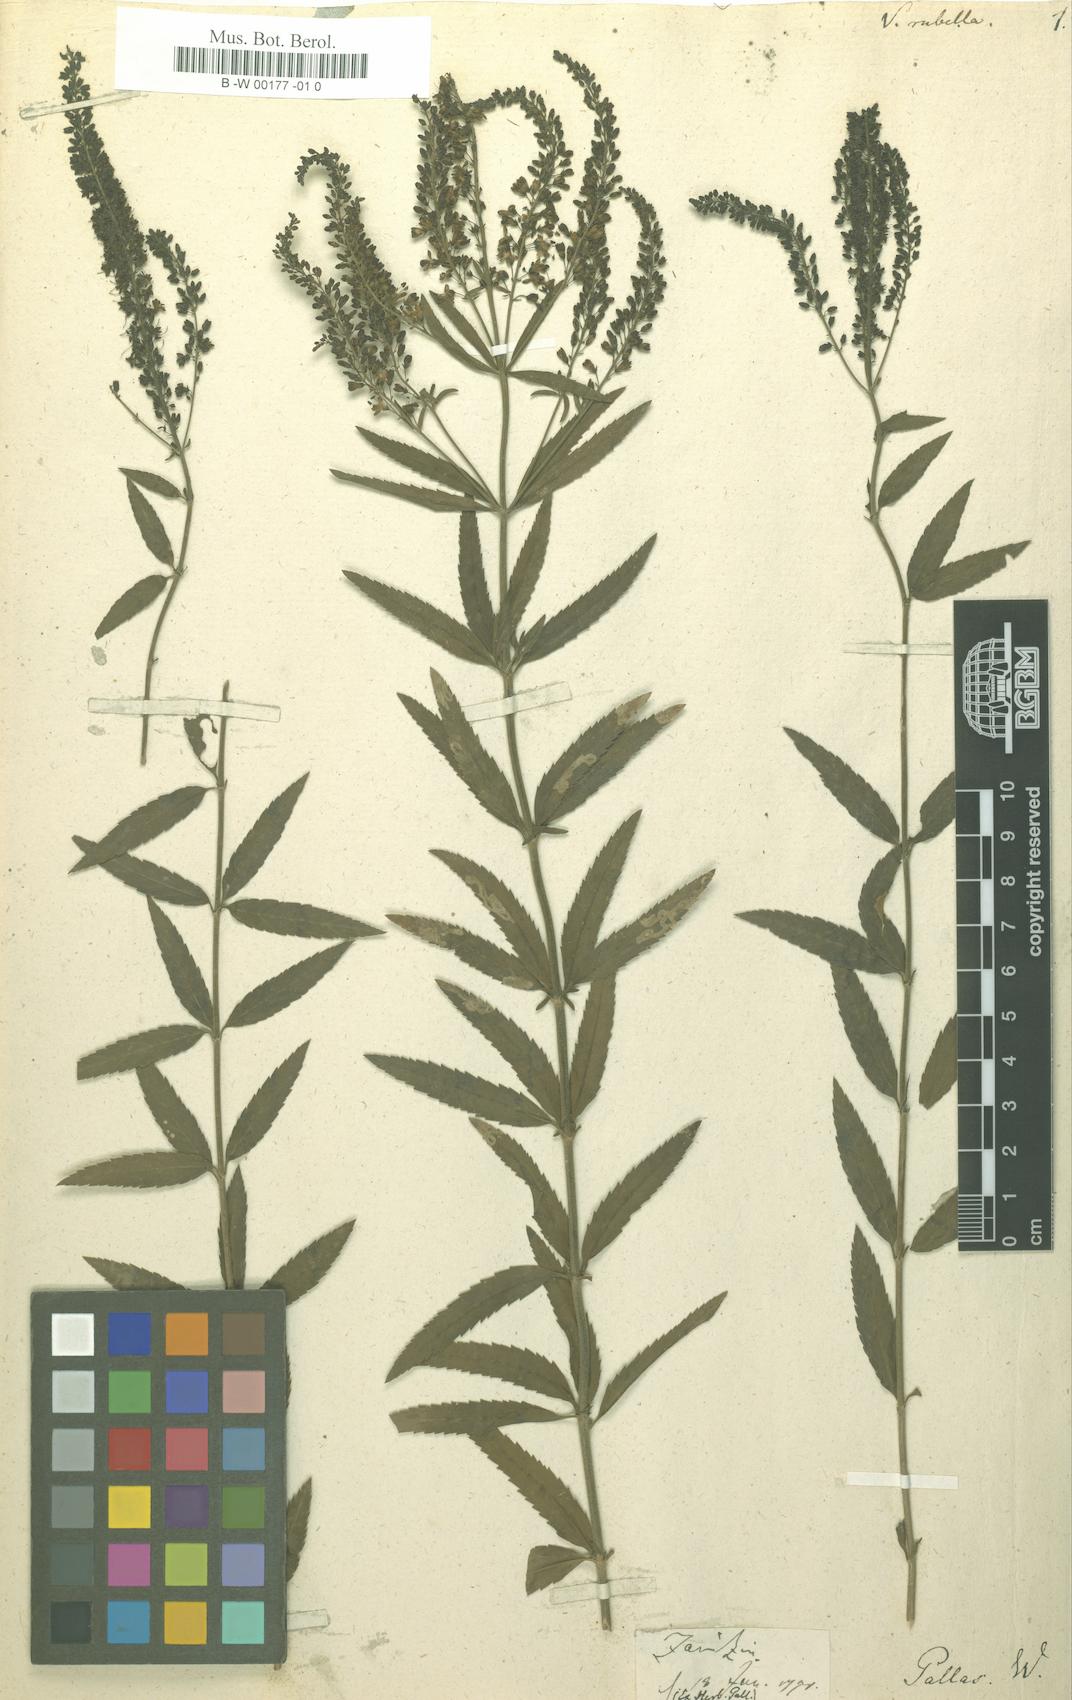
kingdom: Plantae
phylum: Tracheophyta
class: Magnoliopsida
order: Lamiales
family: Plantaginaceae
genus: Veronica
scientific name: Veronica spuria
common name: Bastard speedwell
